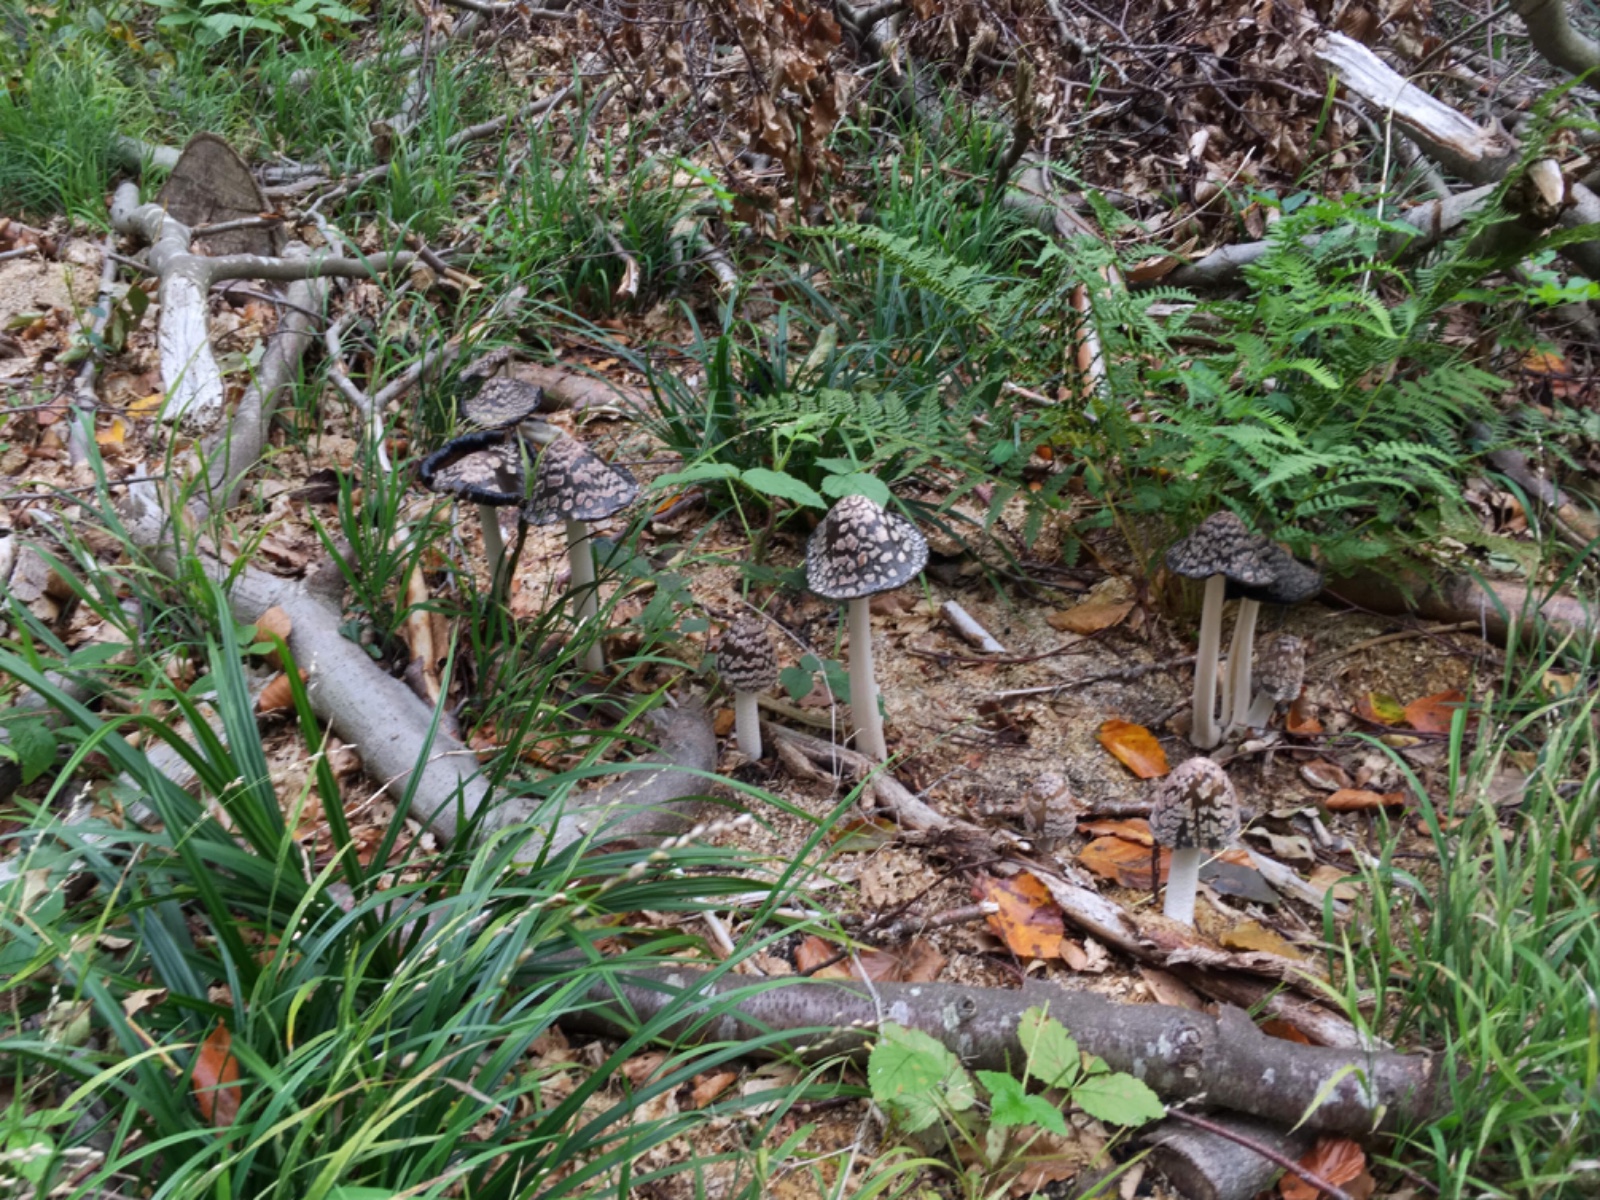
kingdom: Fungi
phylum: Basidiomycota
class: Agaricomycetes
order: Agaricales
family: Psathyrellaceae
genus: Coprinopsis
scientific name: Coprinopsis picacea
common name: skade-blækhat
